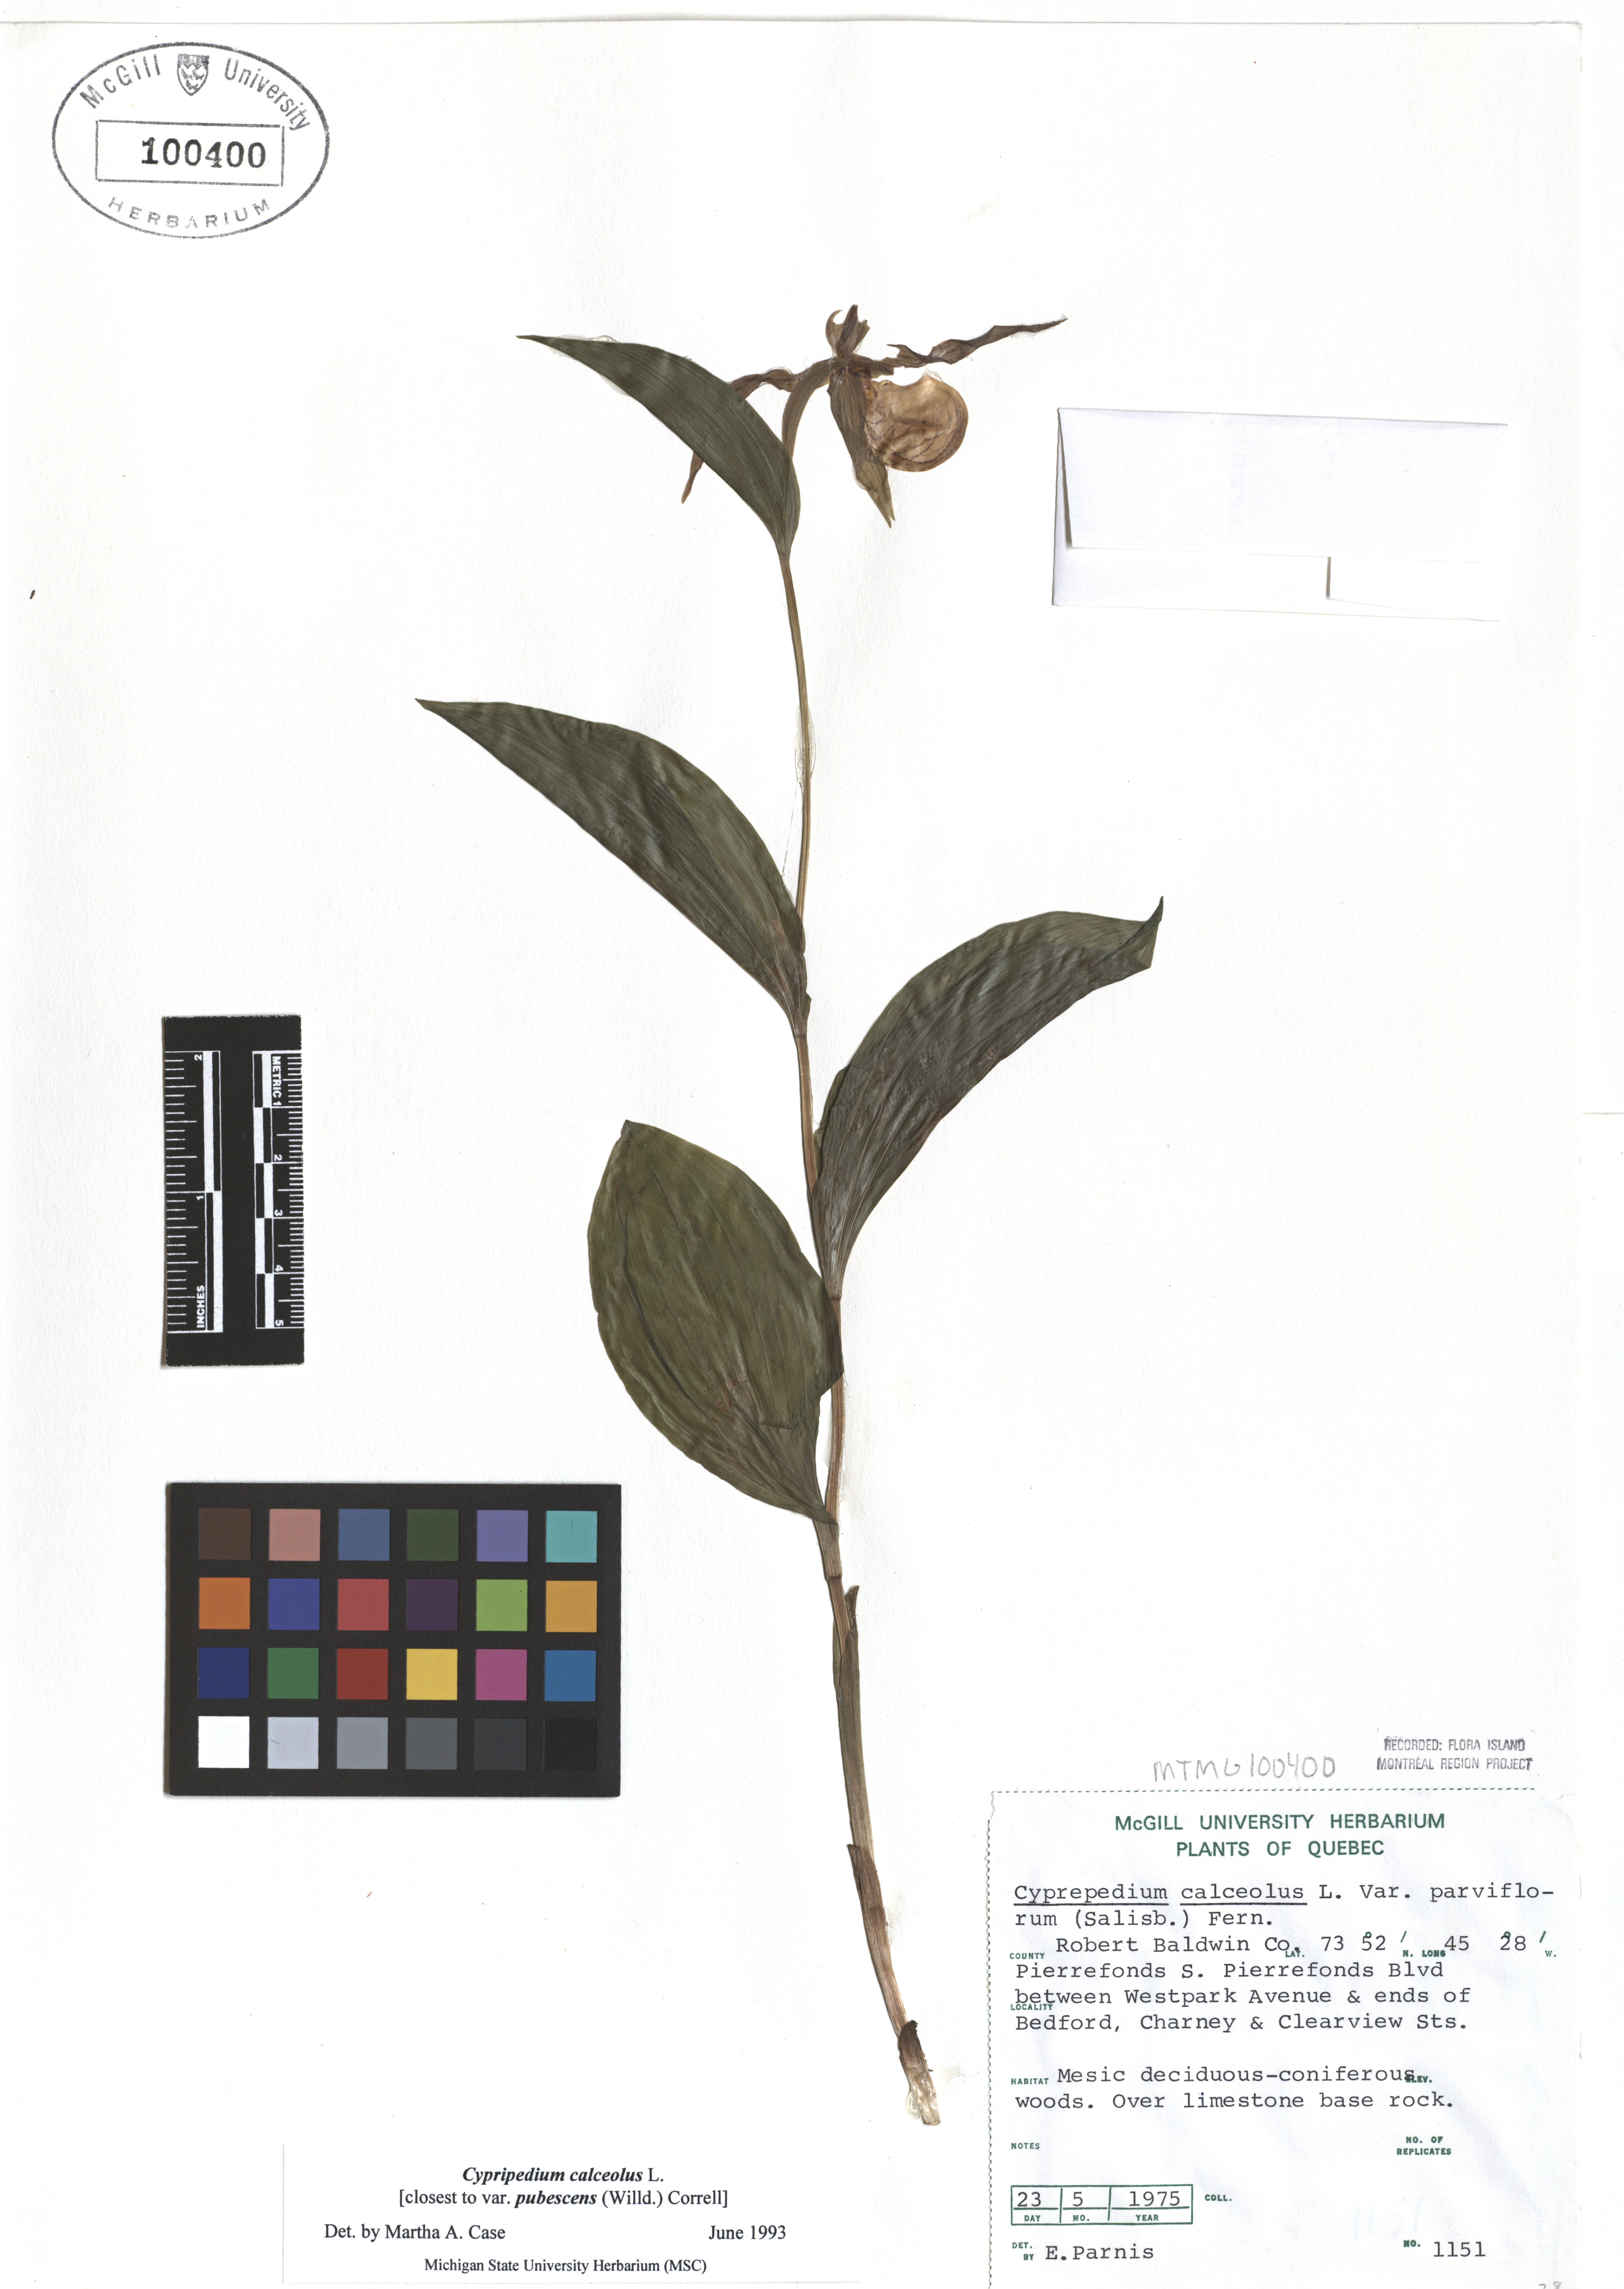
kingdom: Plantae
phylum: Tracheophyta
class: Liliopsida
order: Asparagales
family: Orchidaceae
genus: Cypripedium
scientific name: Cypripedium calceolus
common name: Lady's-slipper
